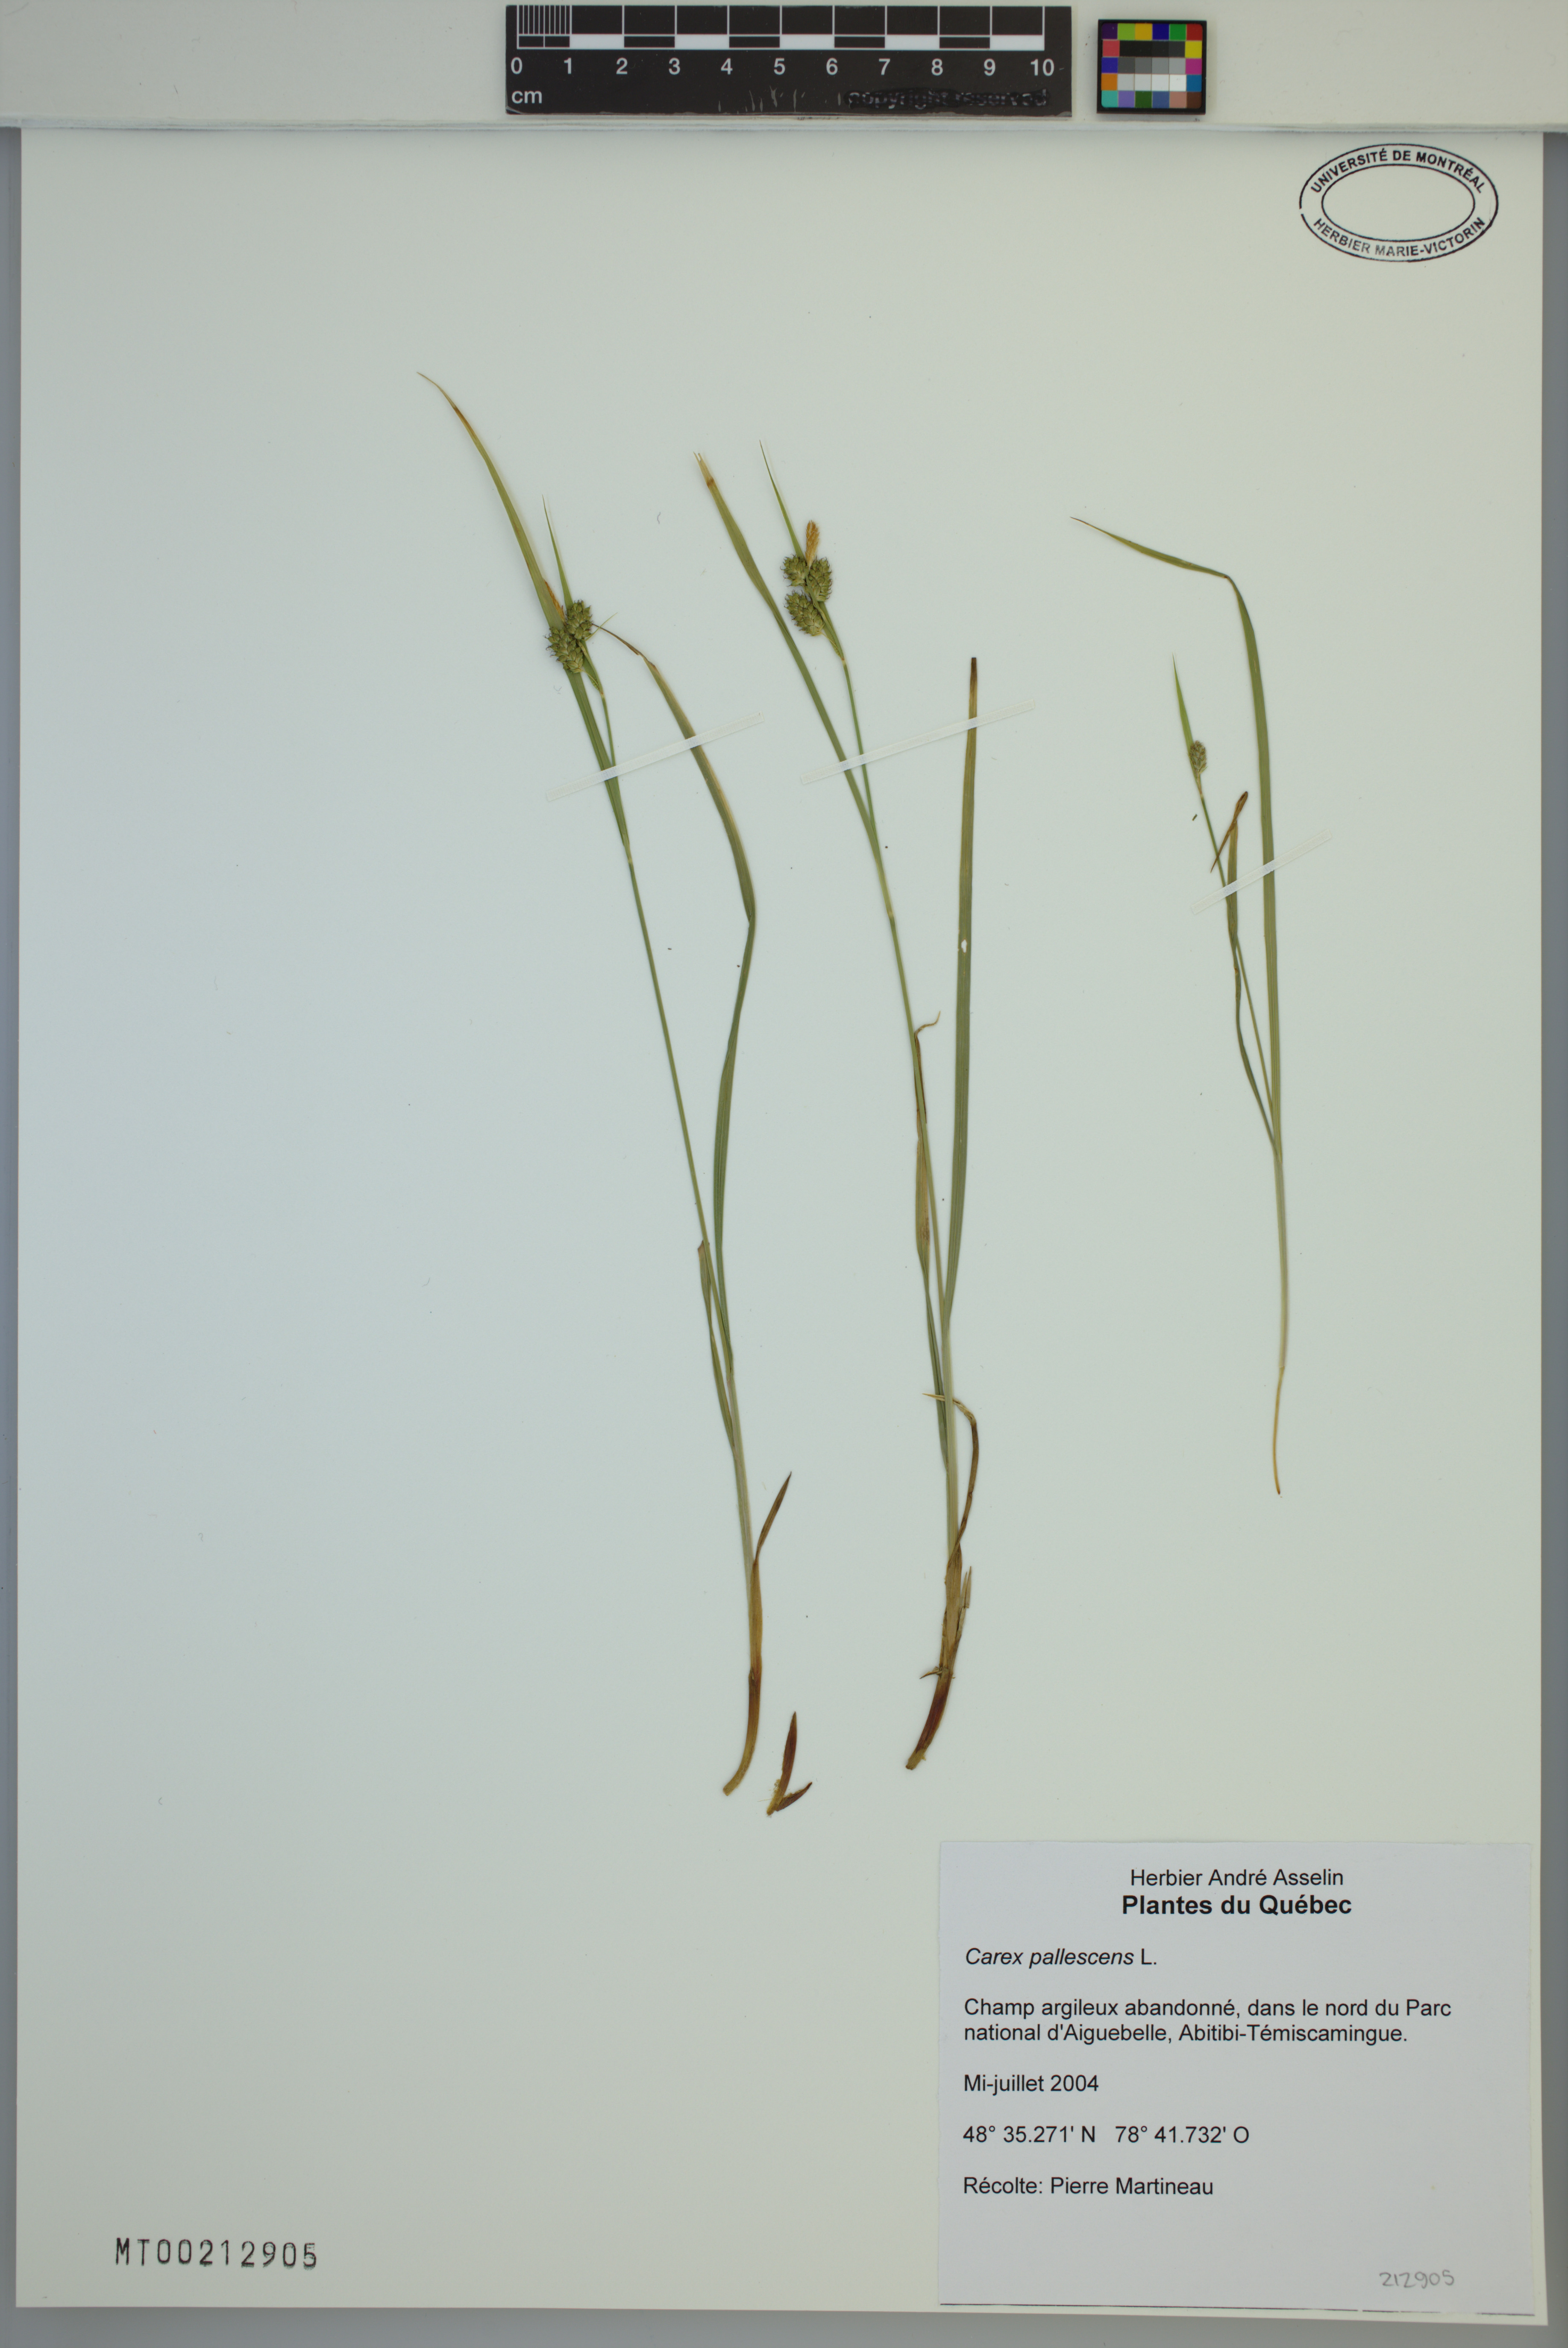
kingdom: Plantae
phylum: Tracheophyta
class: Liliopsida
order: Poales
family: Cyperaceae
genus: Carex
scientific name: Carex pallescens
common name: Pale sedge
